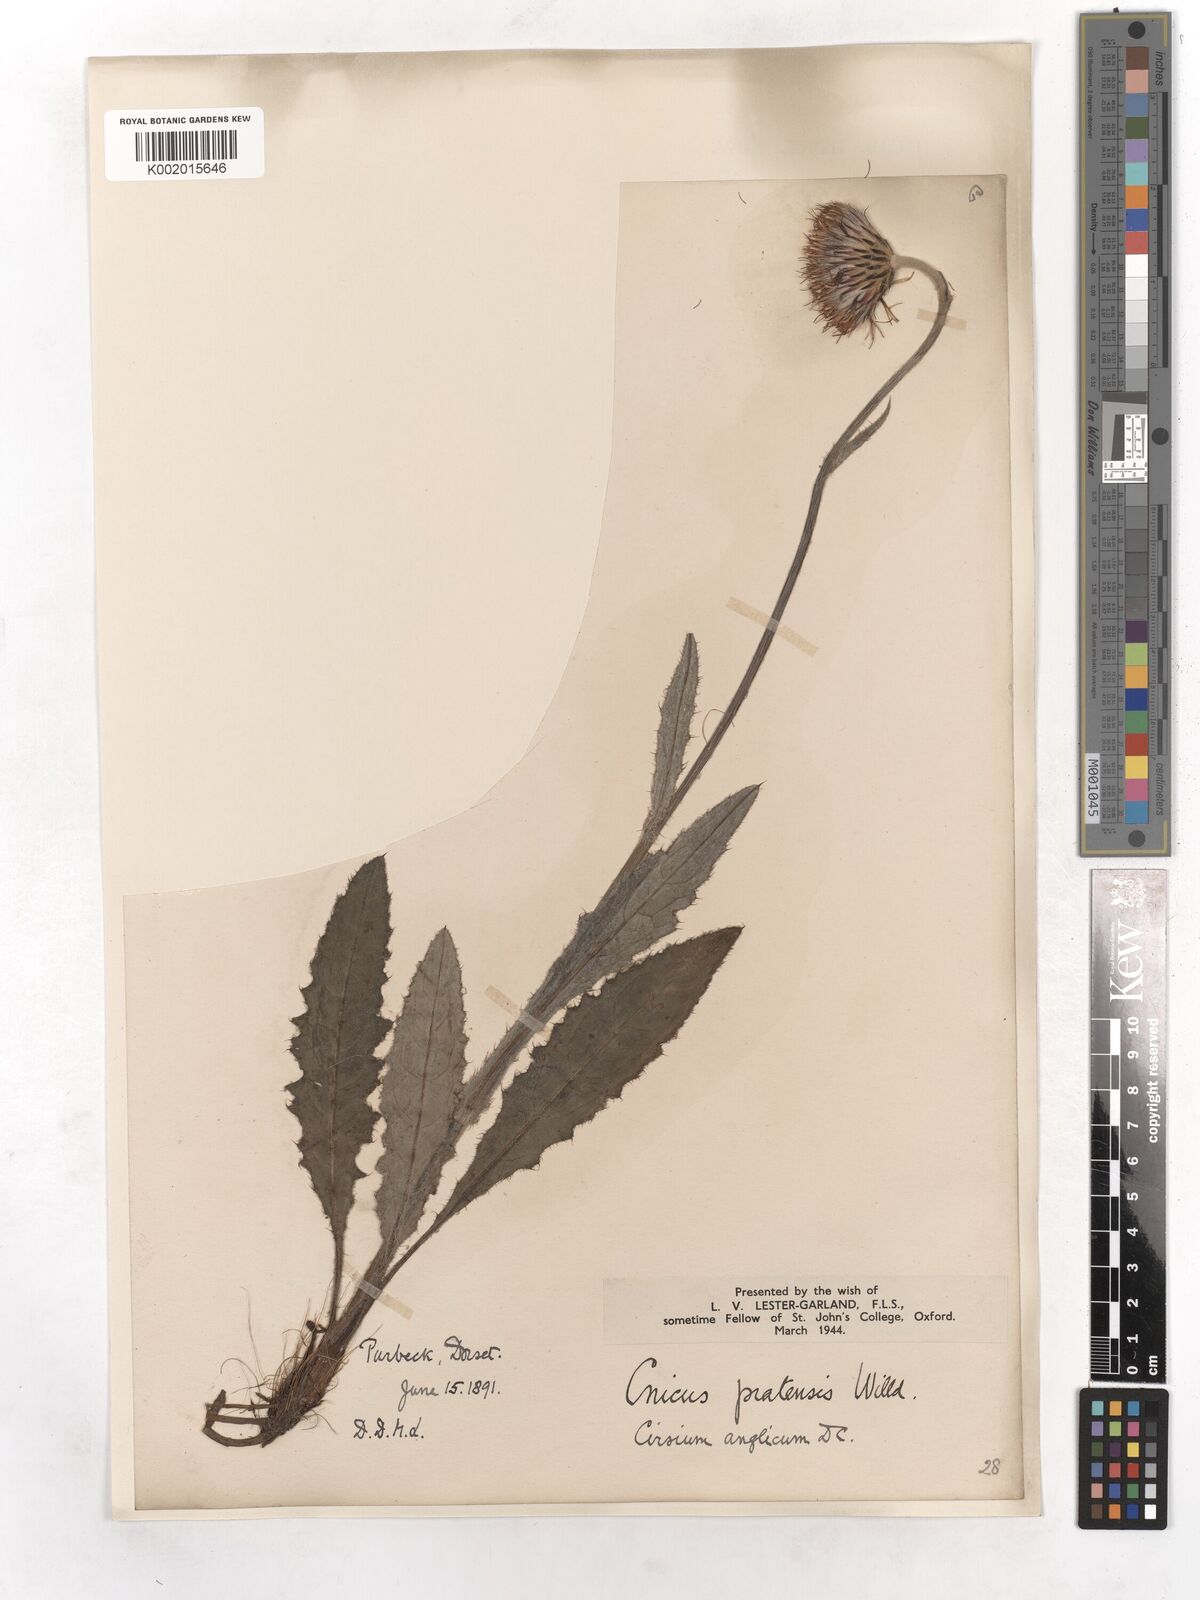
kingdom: Plantae
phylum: Tracheophyta
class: Magnoliopsida
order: Asterales
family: Asteraceae
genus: Cirsium
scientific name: Cirsium
